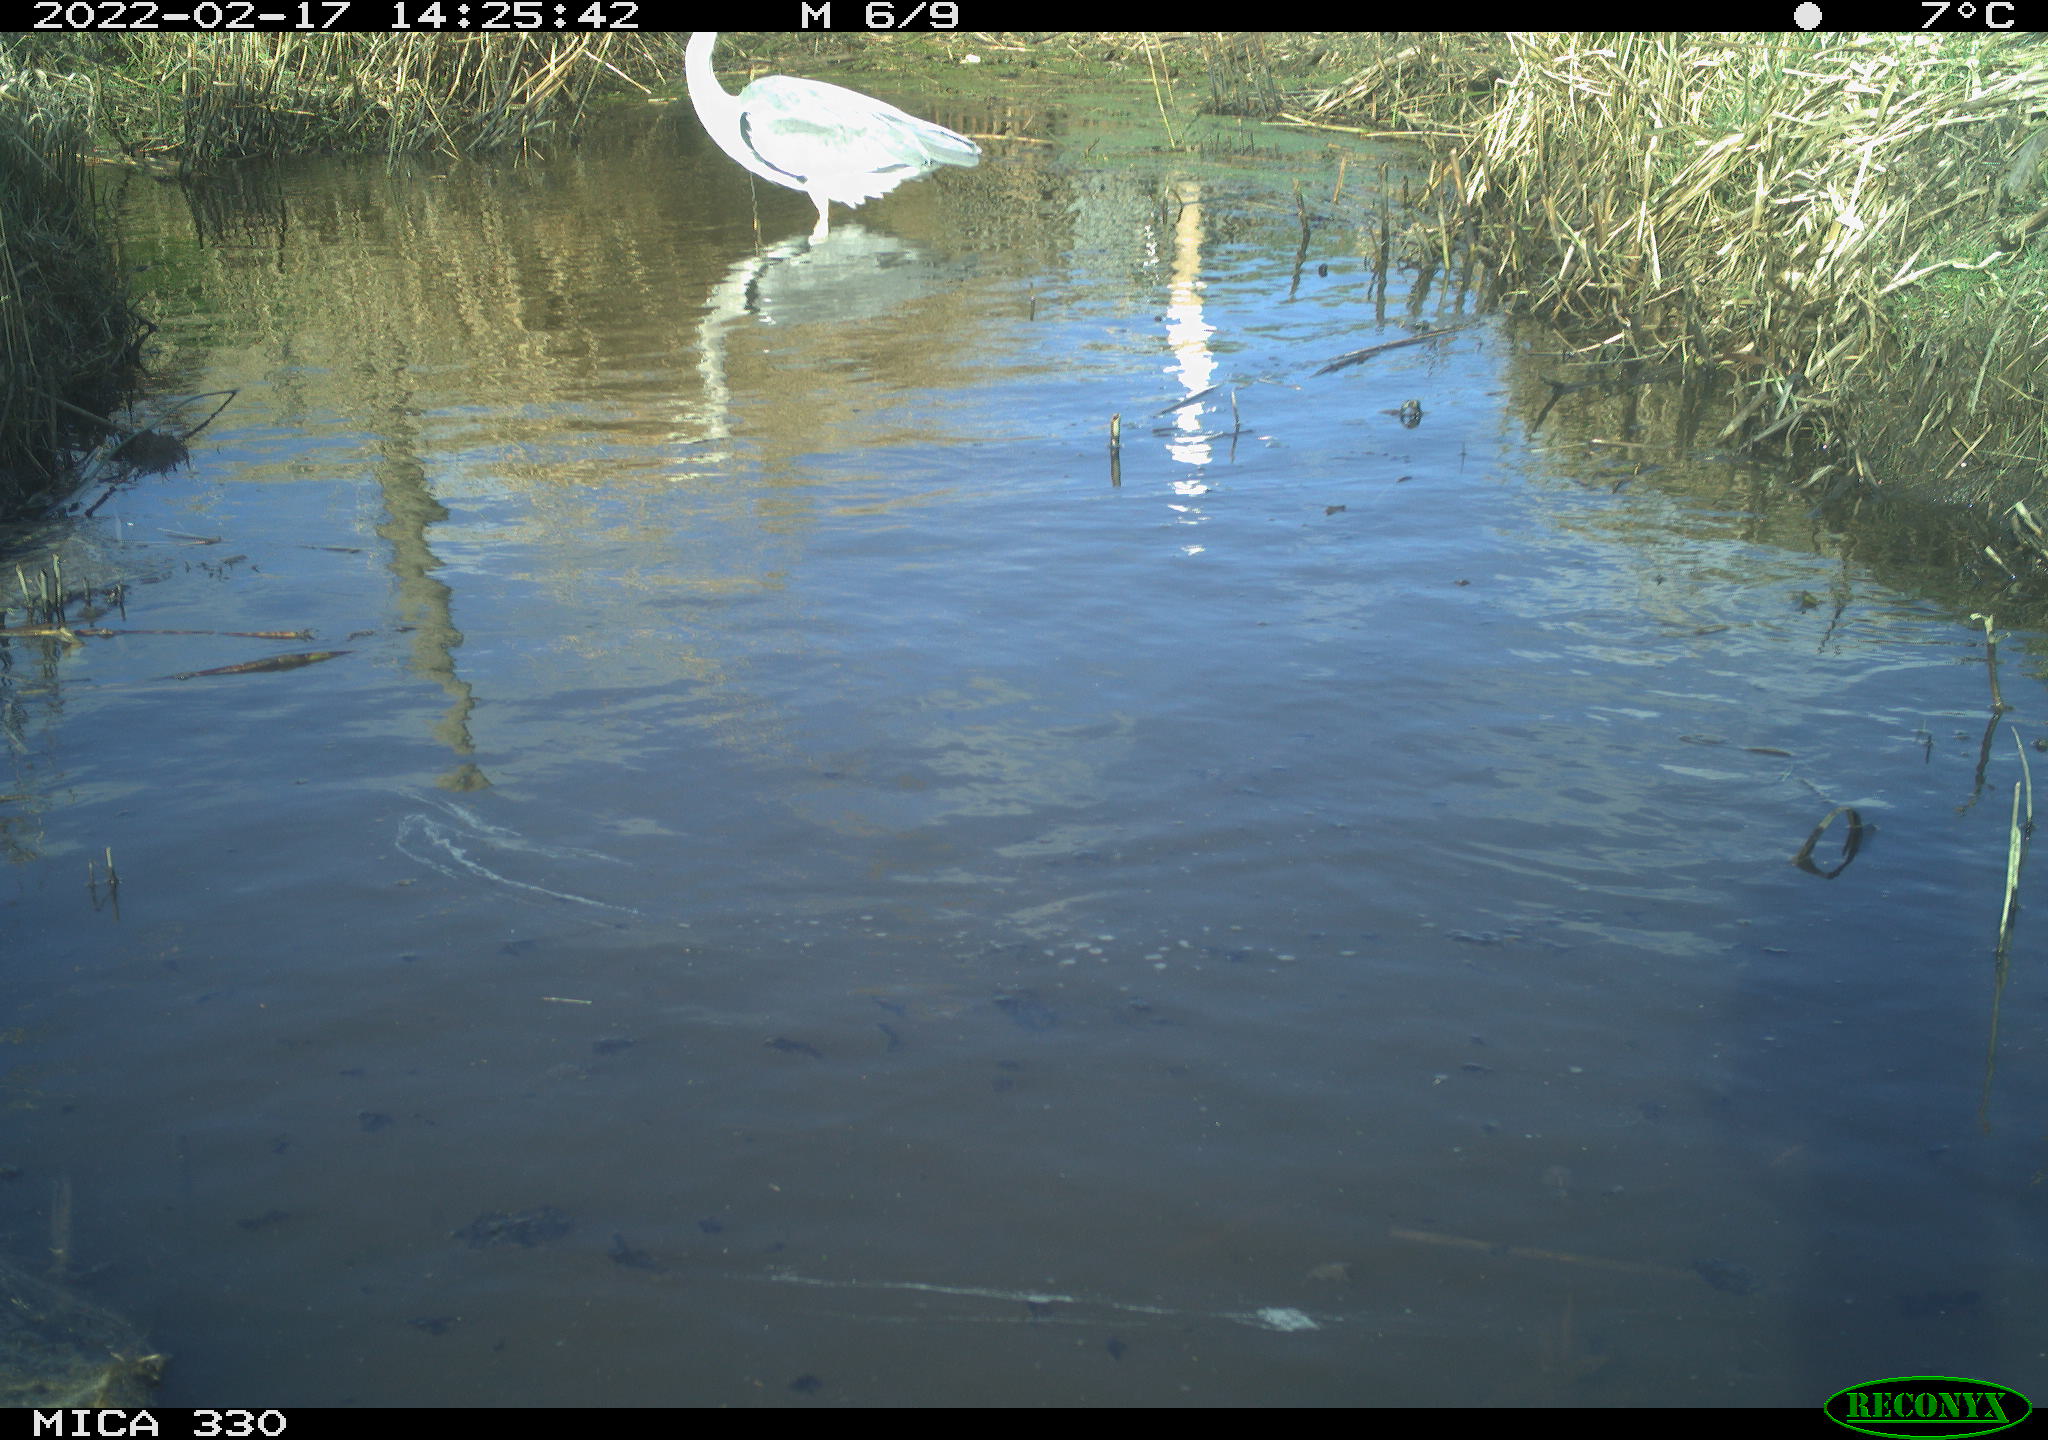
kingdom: Animalia
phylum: Chordata
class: Aves
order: Pelecaniformes
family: Ardeidae
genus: Ardea
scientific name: Ardea cinerea
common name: Grey heron
